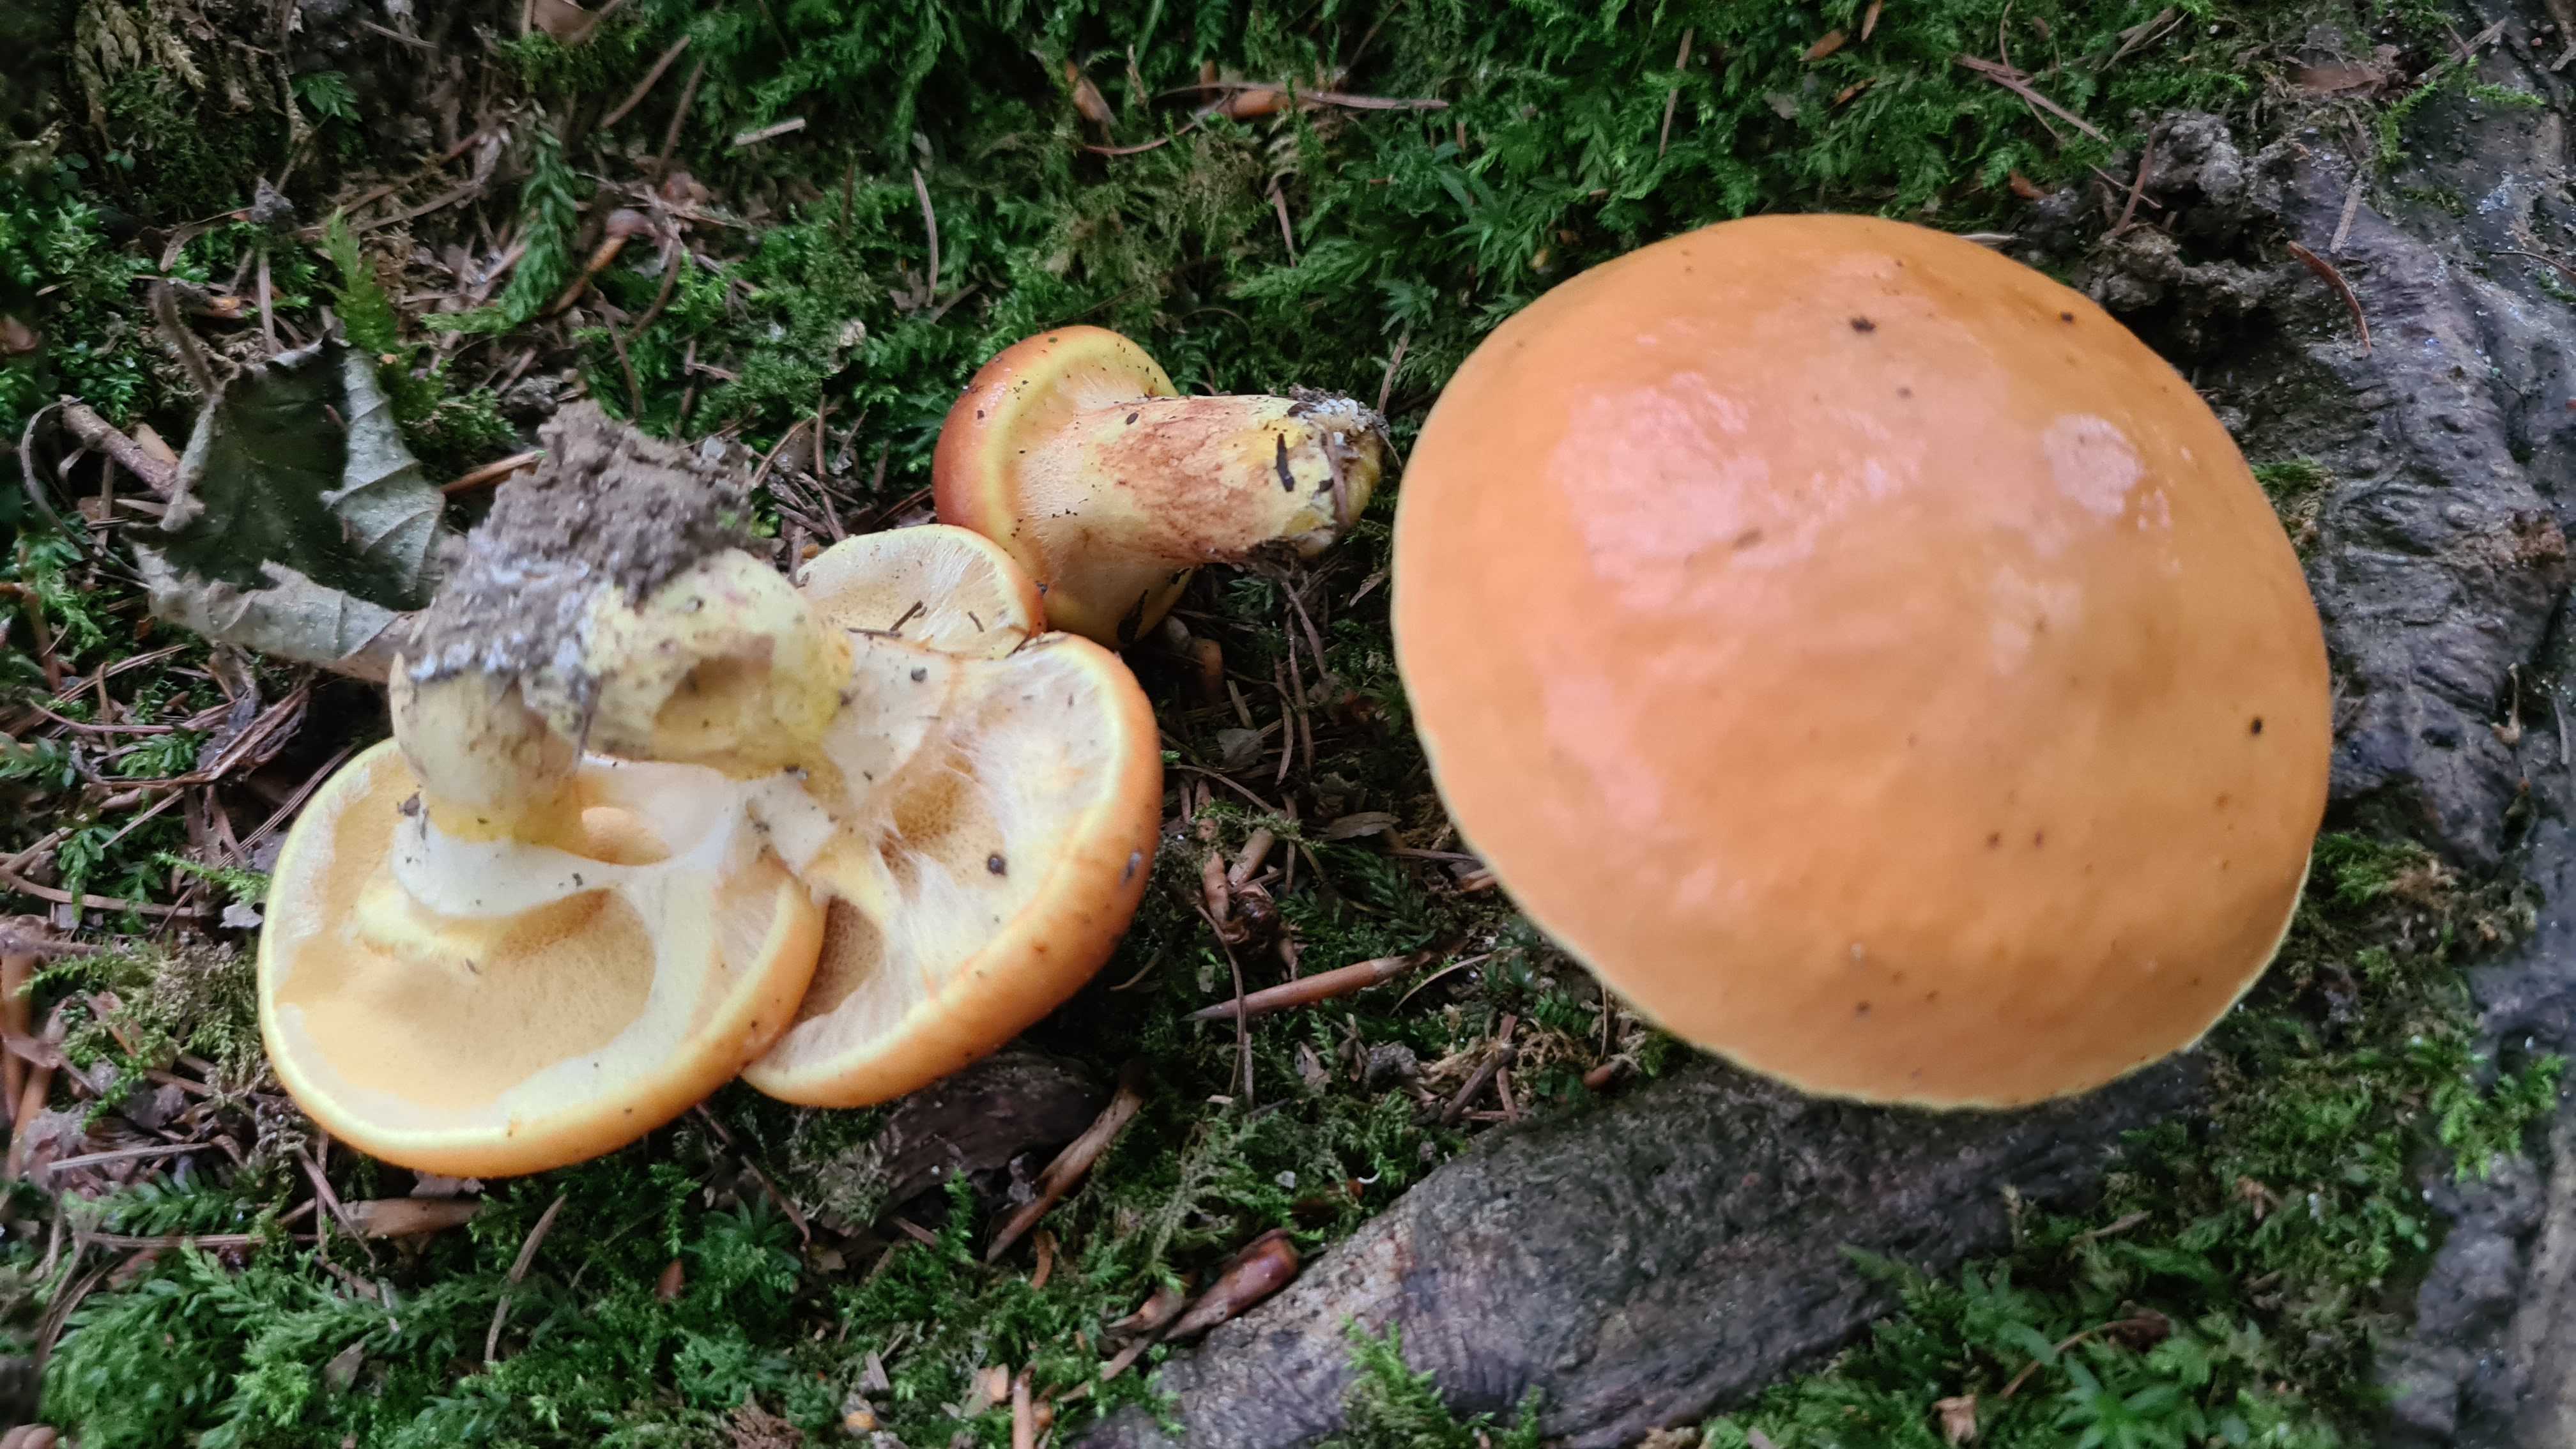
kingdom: Fungi
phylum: Basidiomycota
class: Agaricomycetes
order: Boletales
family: Suillaceae
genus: Suillus
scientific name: Suillus grevillei
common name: lærke-slimrørhat
